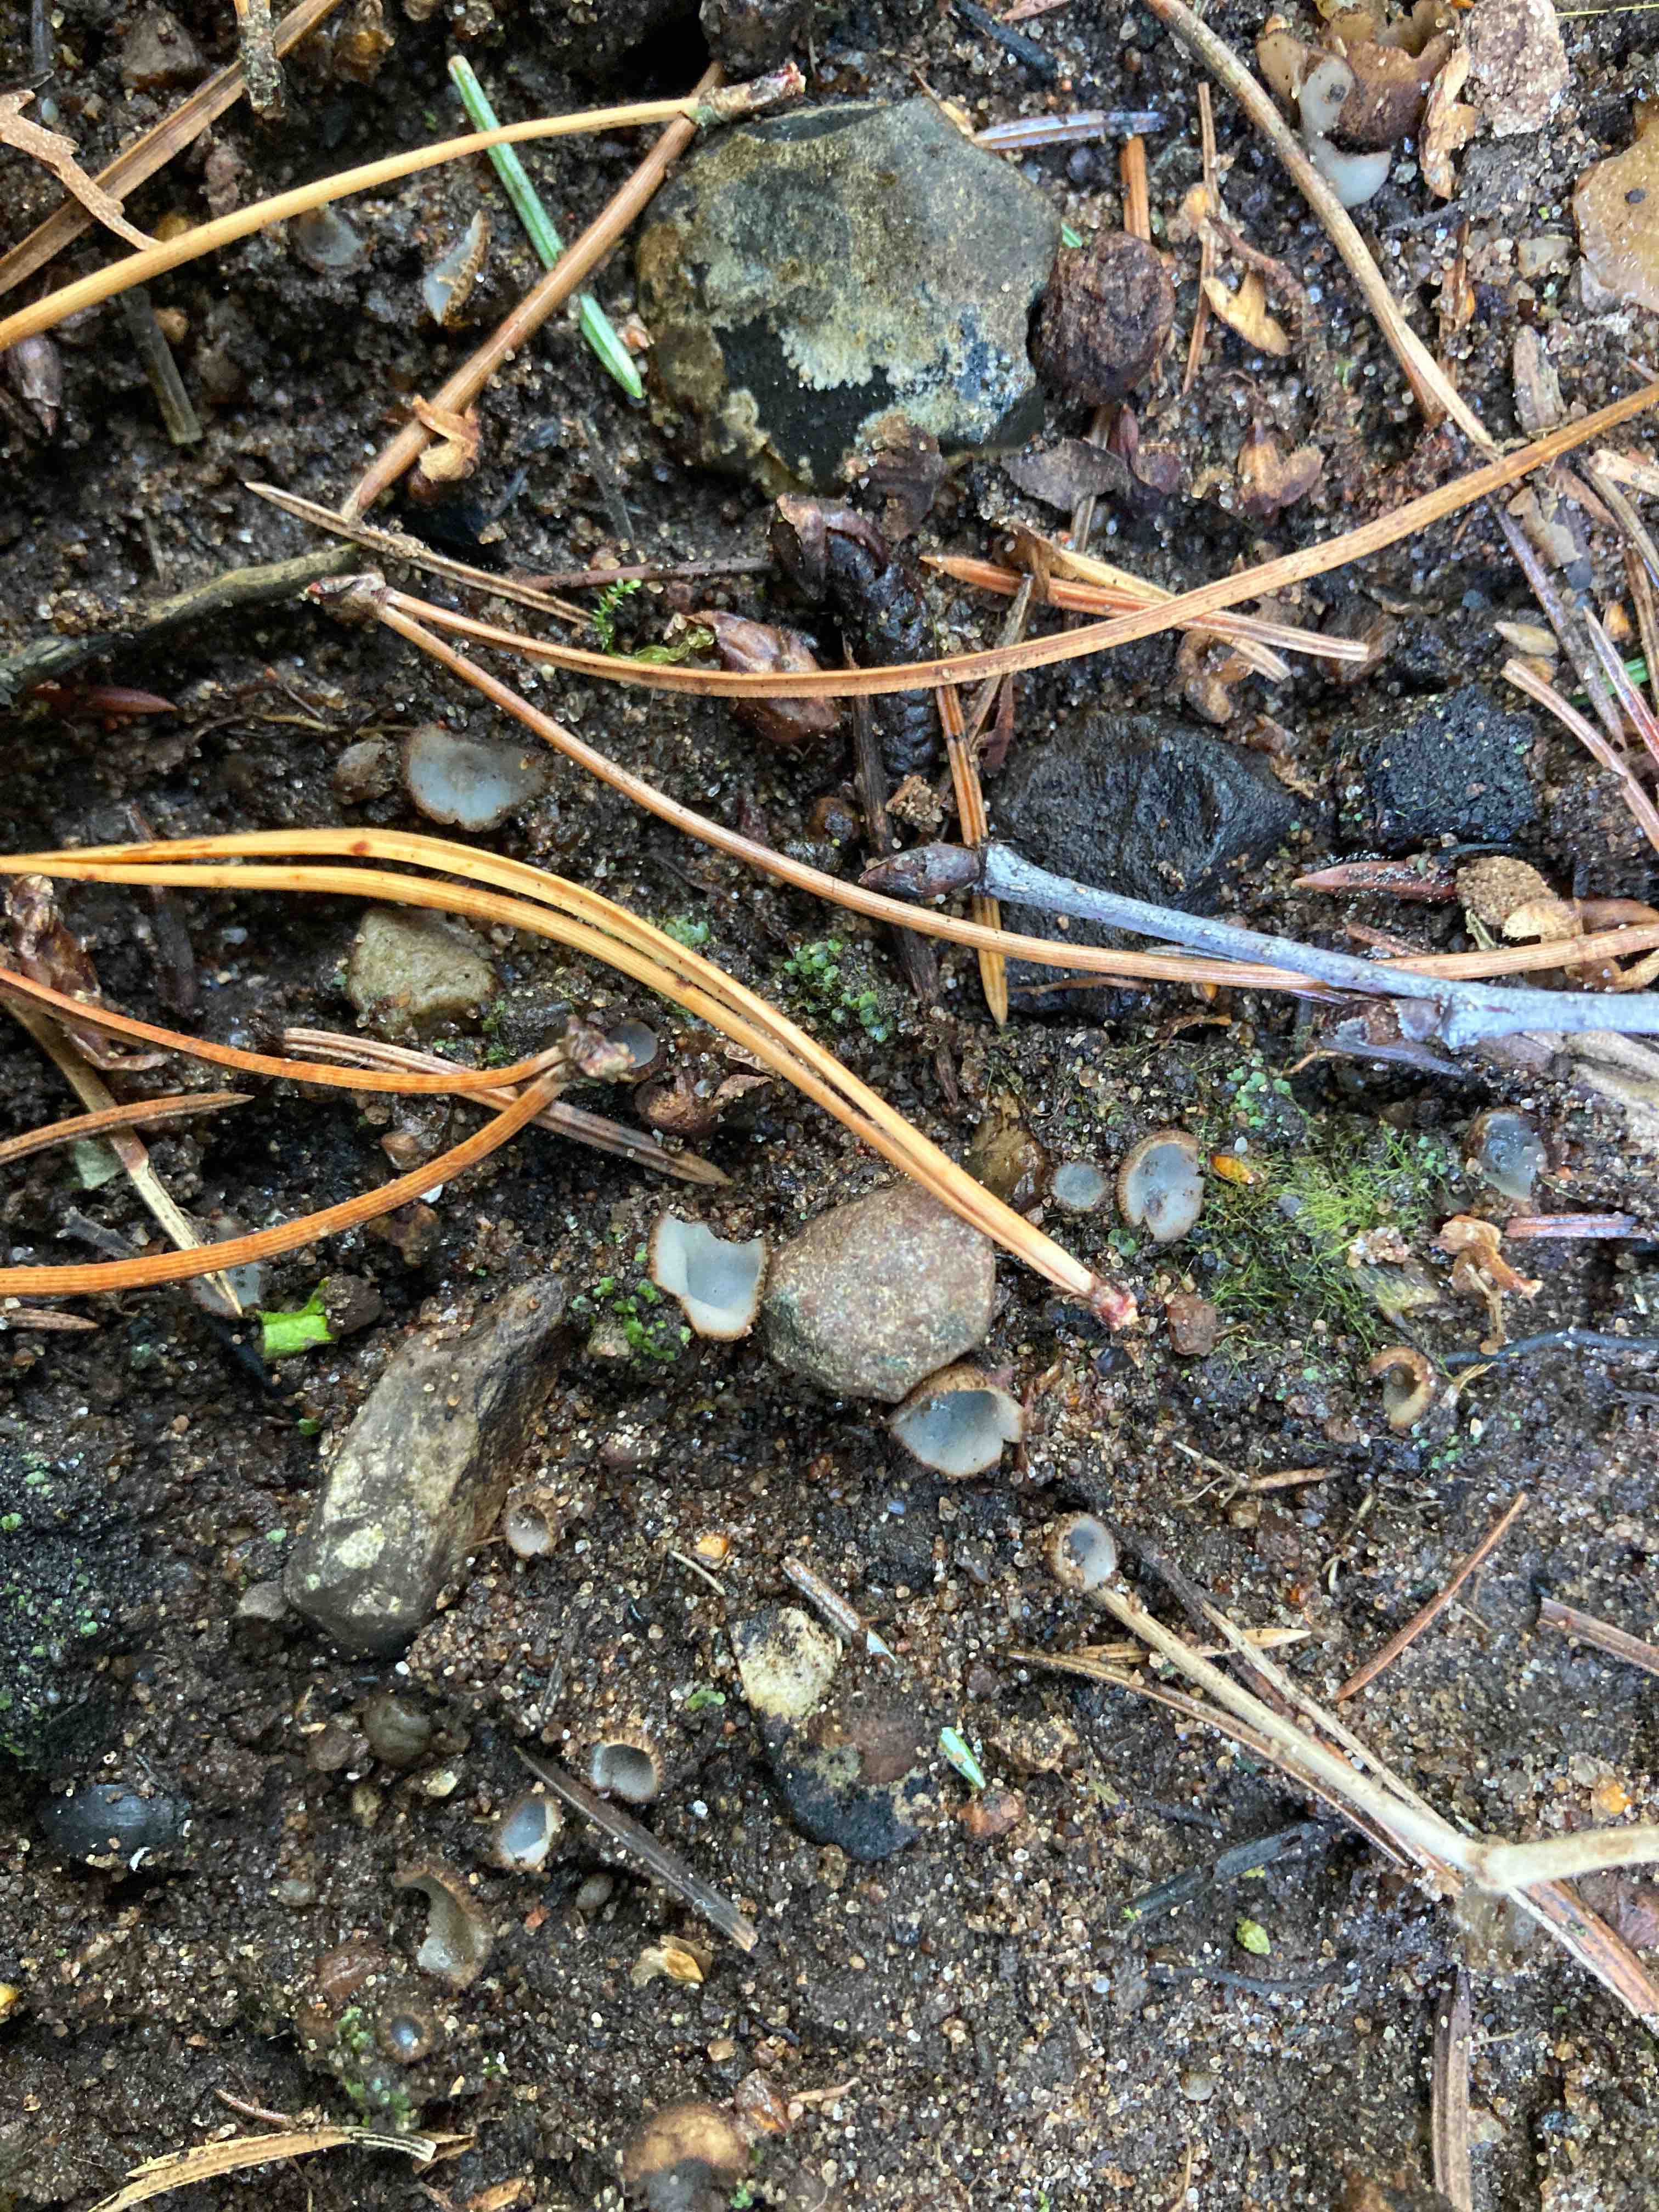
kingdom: Fungi
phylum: Ascomycota
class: Pezizomycetes
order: Pezizales
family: Pyronemataceae
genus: Geopora
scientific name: Geopora
